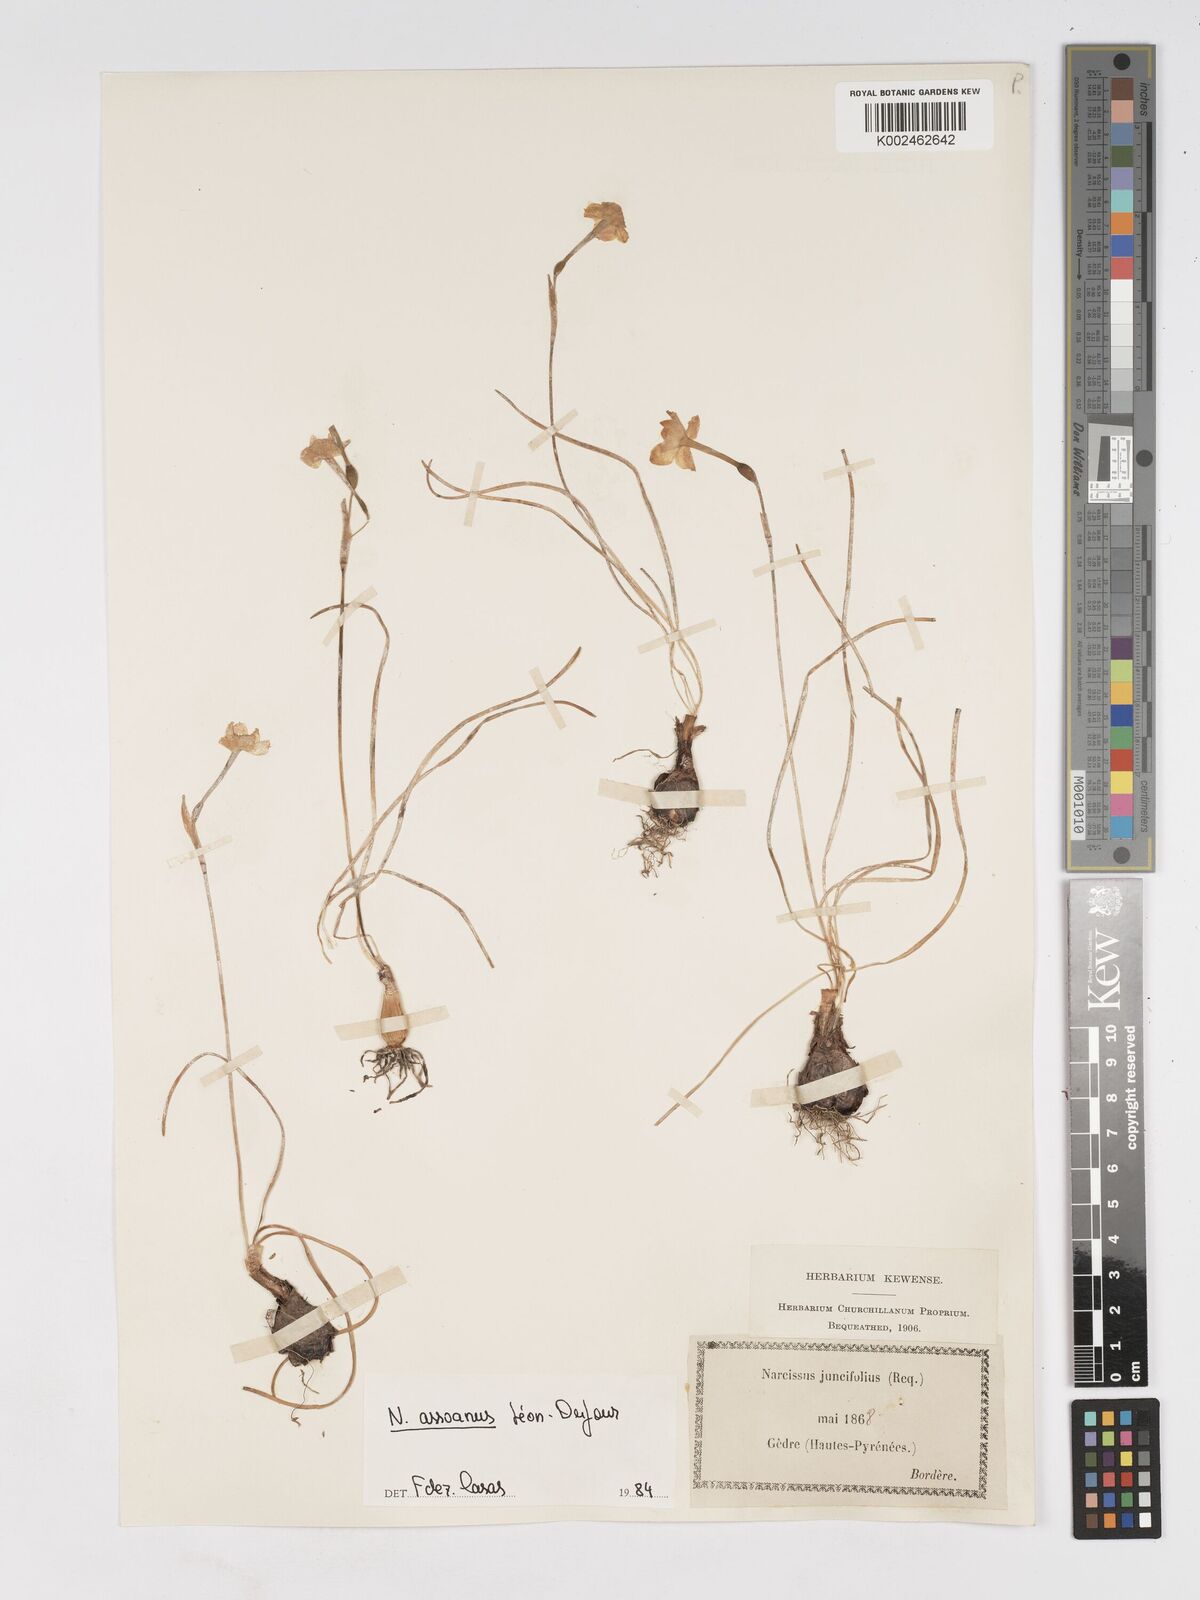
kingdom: Plantae
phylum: Tracheophyta
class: Liliopsida
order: Asparagales
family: Amaryllidaceae
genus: Narcissus
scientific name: Narcissus assoanus
